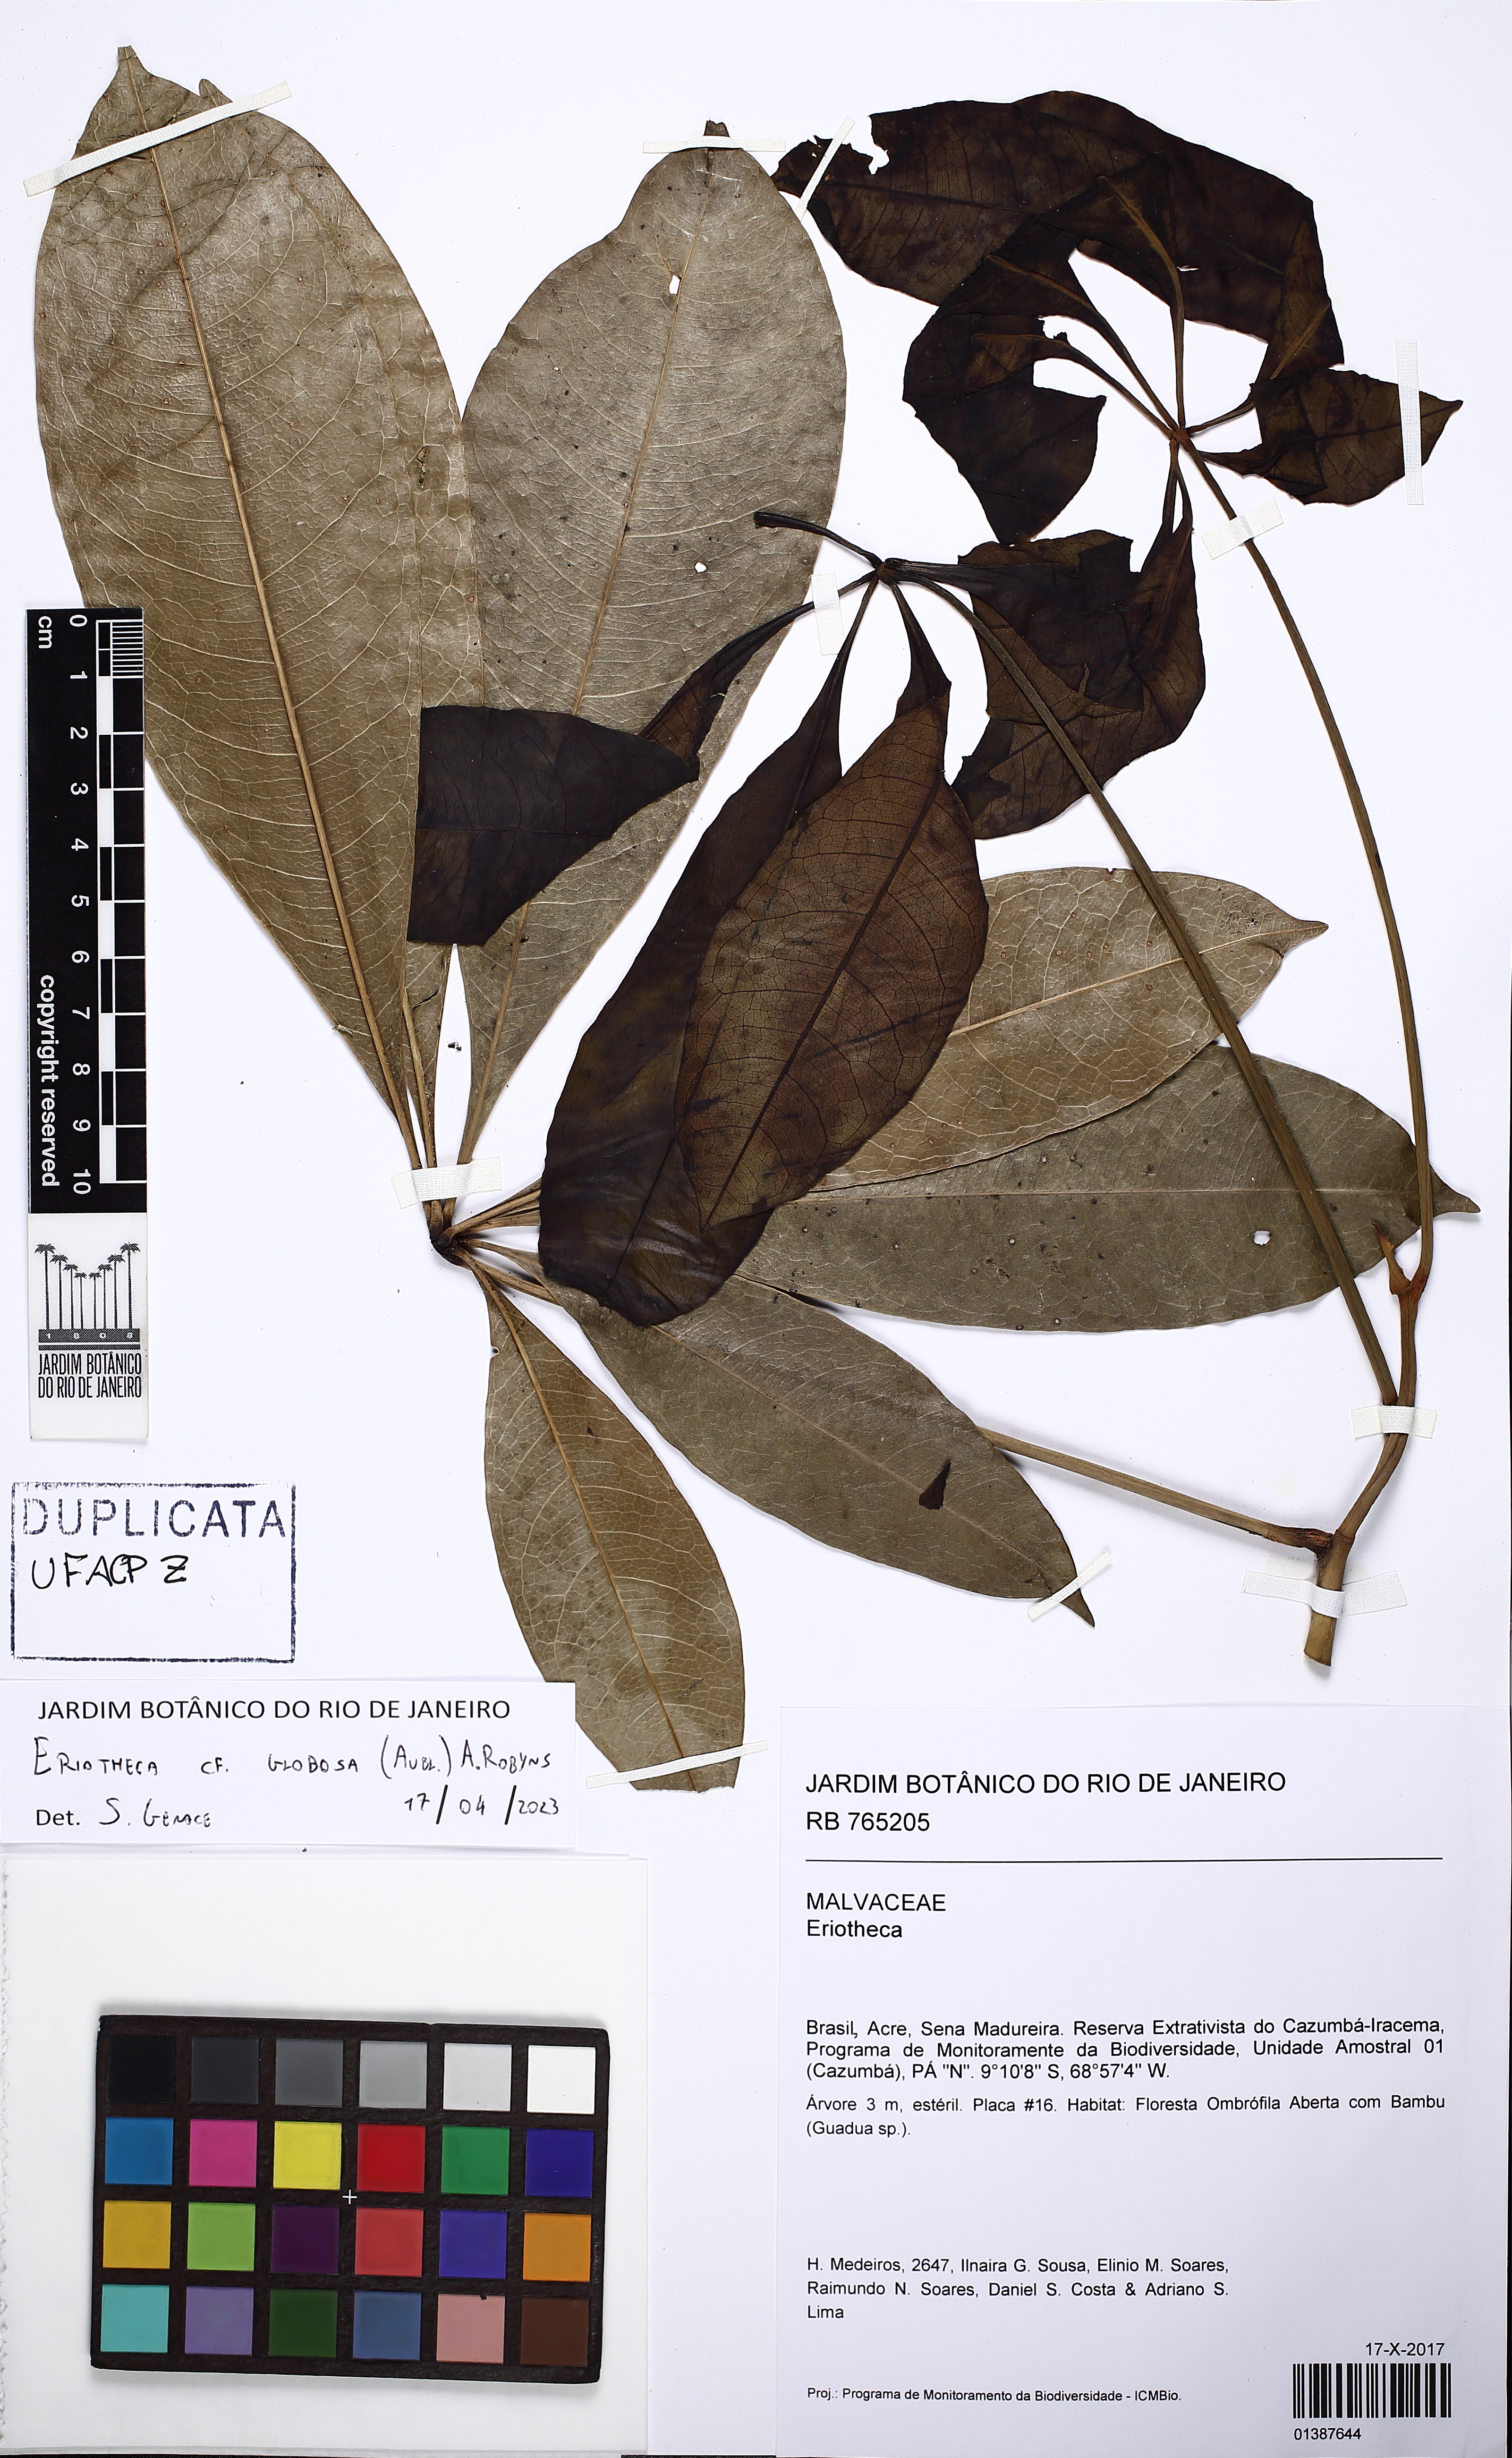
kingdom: Plantae
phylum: Tracheophyta
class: Magnoliopsida
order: Malvales
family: Malvaceae
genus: Eriotheca
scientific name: Eriotheca globosa
